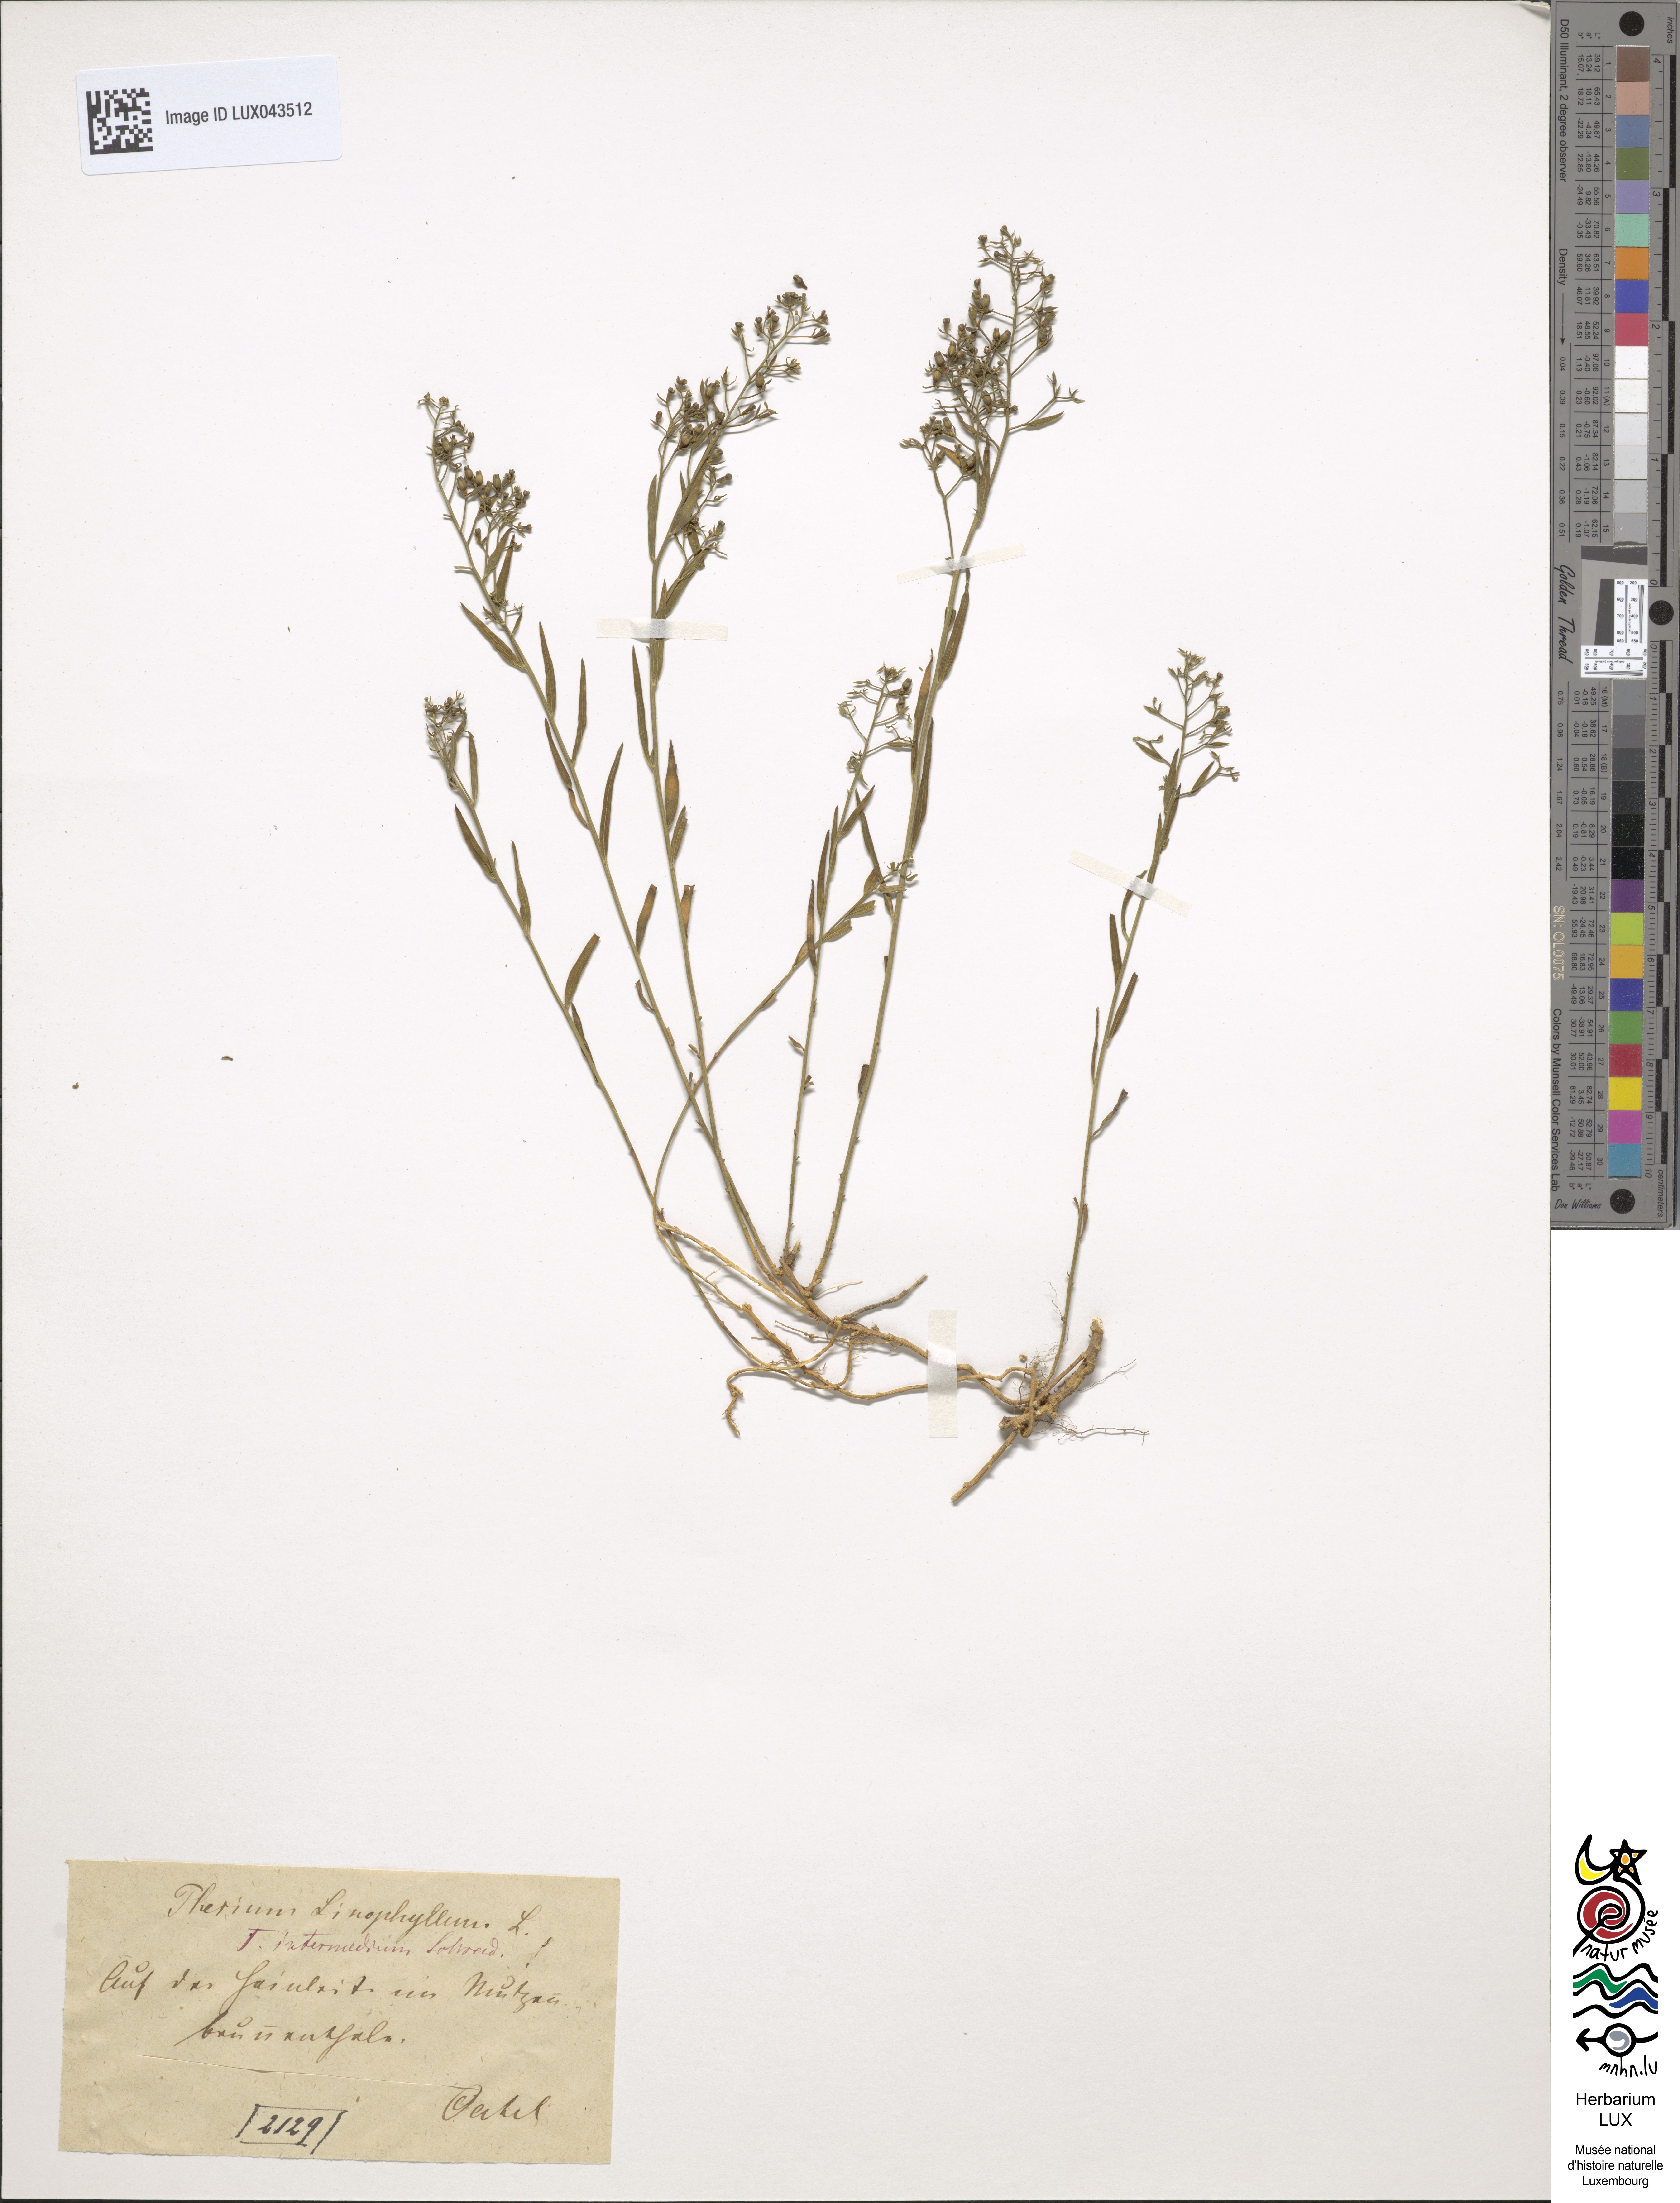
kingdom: Plantae
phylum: Tracheophyta
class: Magnoliopsida
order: Santalales
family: Thesiaceae
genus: Thesium
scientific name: Thesium linophyllon
